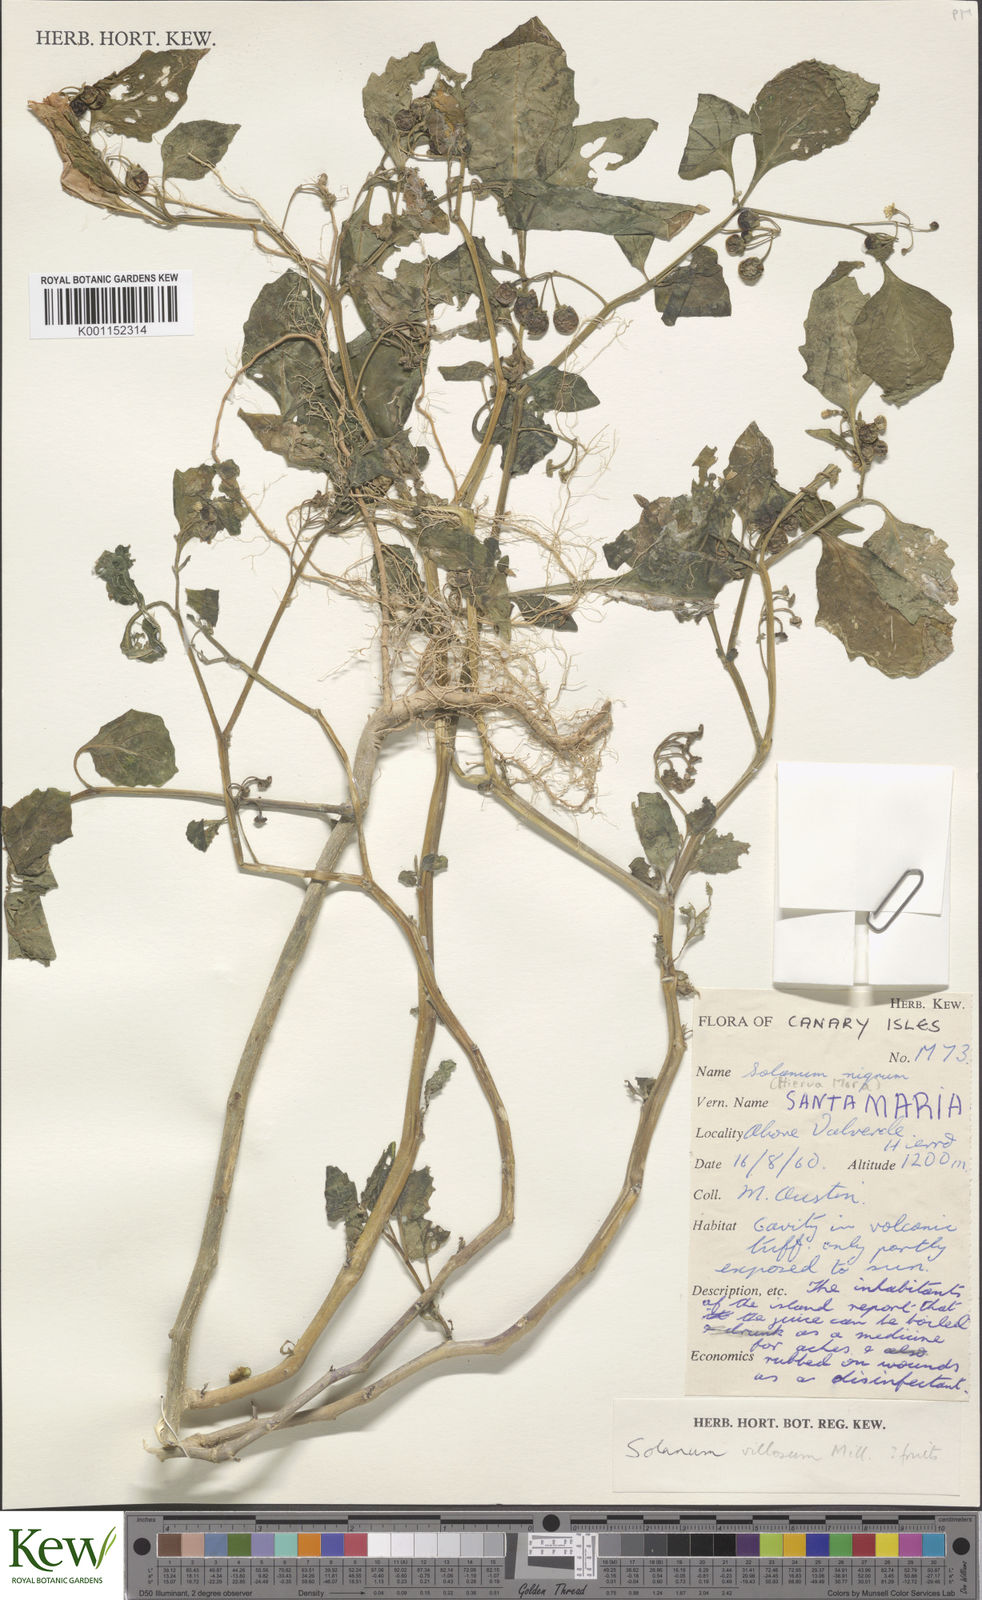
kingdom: Plantae
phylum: Tracheophyta
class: Magnoliopsida
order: Solanales
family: Solanaceae
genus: Solanum
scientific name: Solanum villosum
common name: Red nightshade
